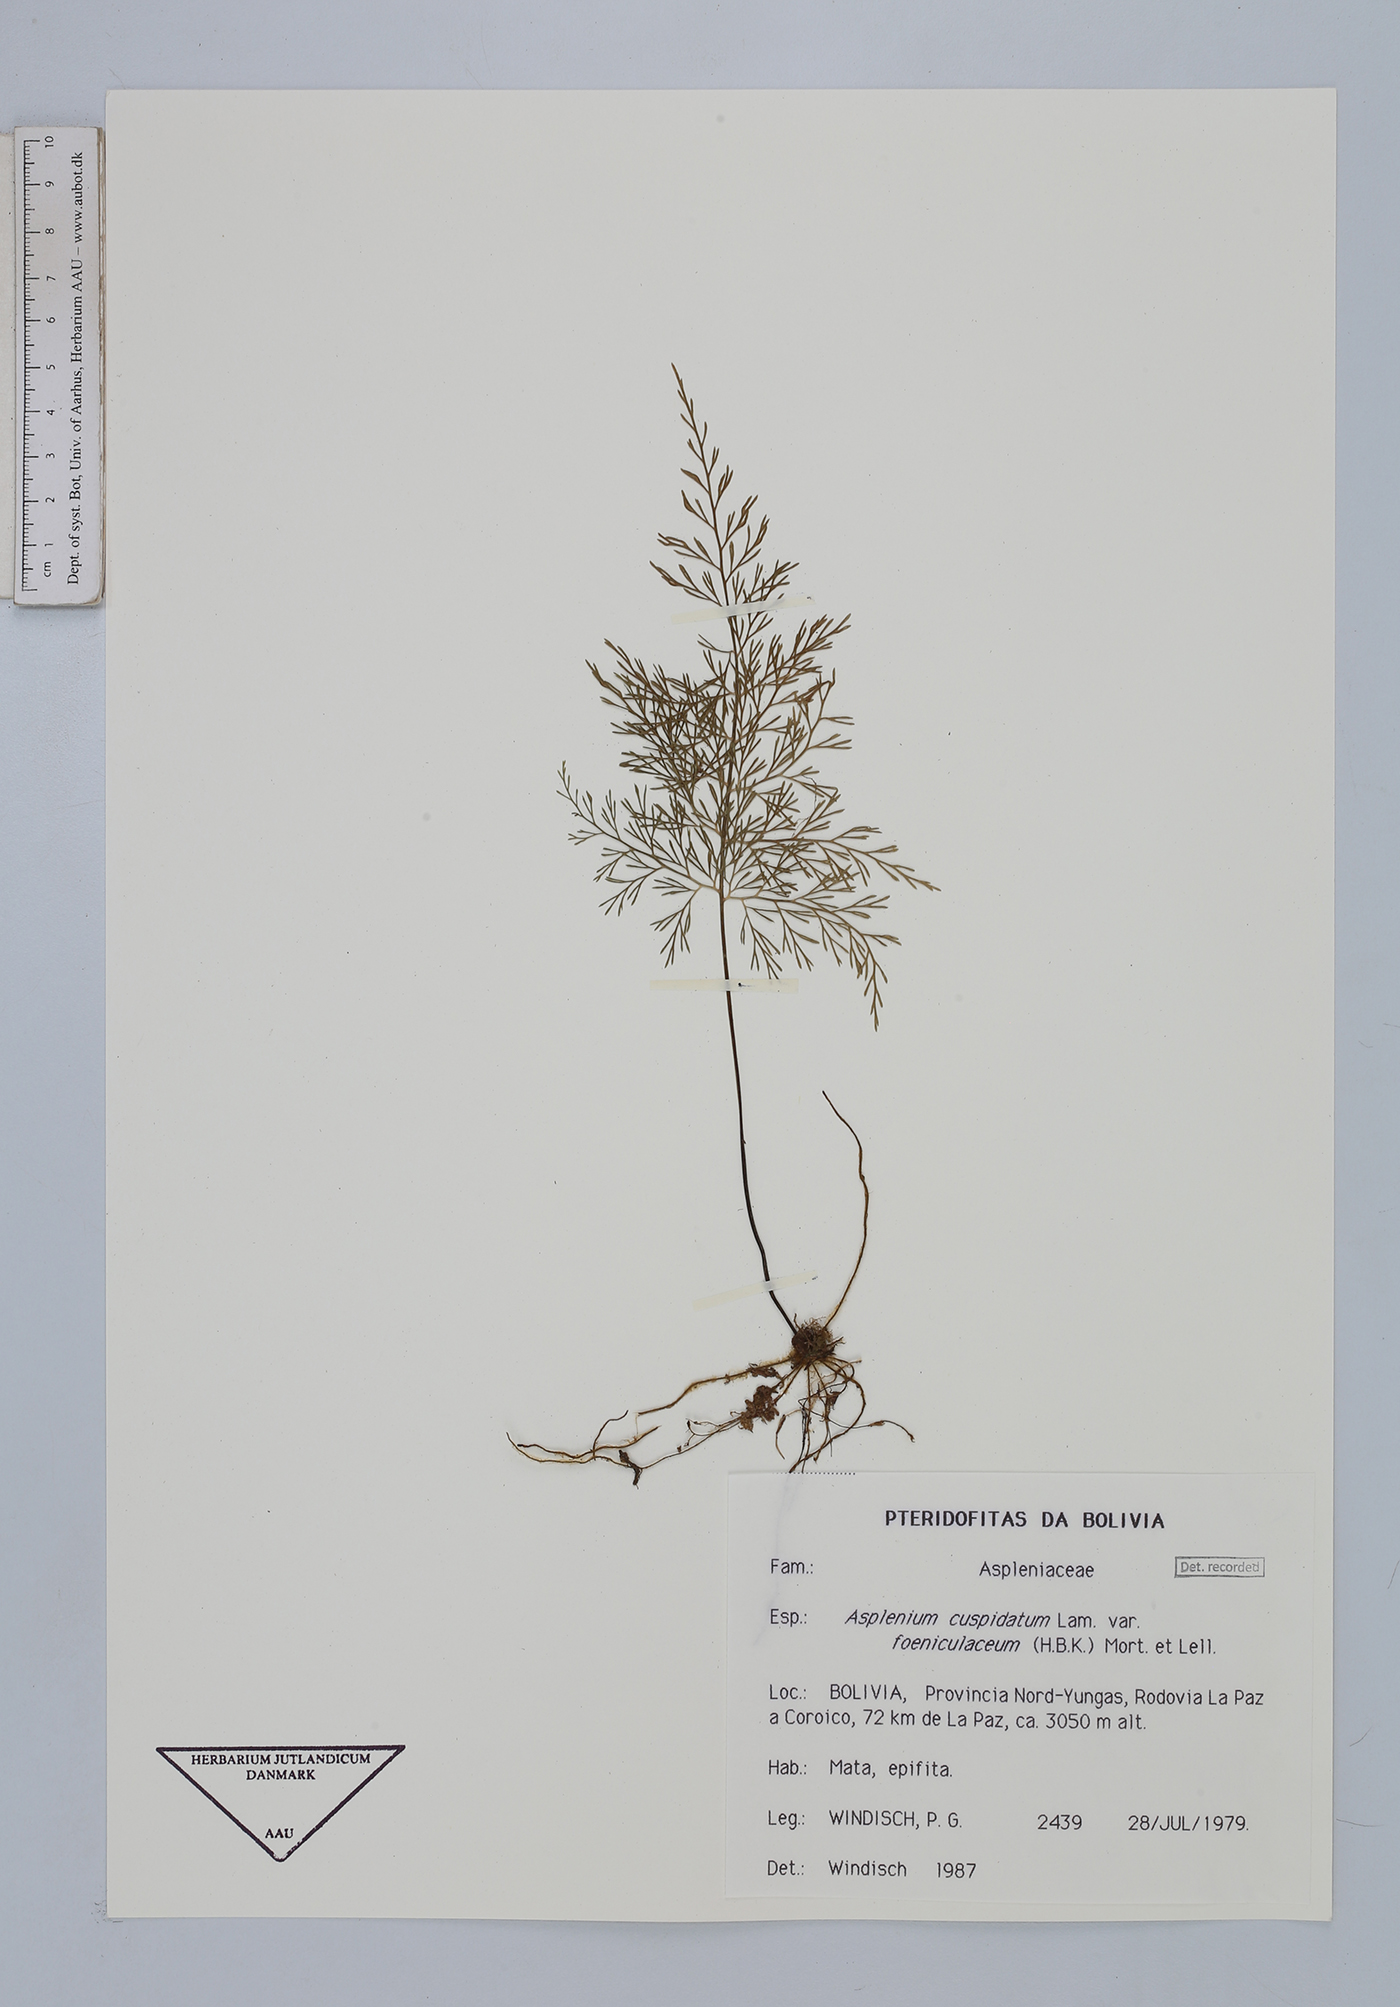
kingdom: Plantae
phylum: Tracheophyta
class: Polypodiopsida
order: Polypodiales
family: Aspleniaceae
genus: Asplenium
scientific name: Asplenium fragrans
